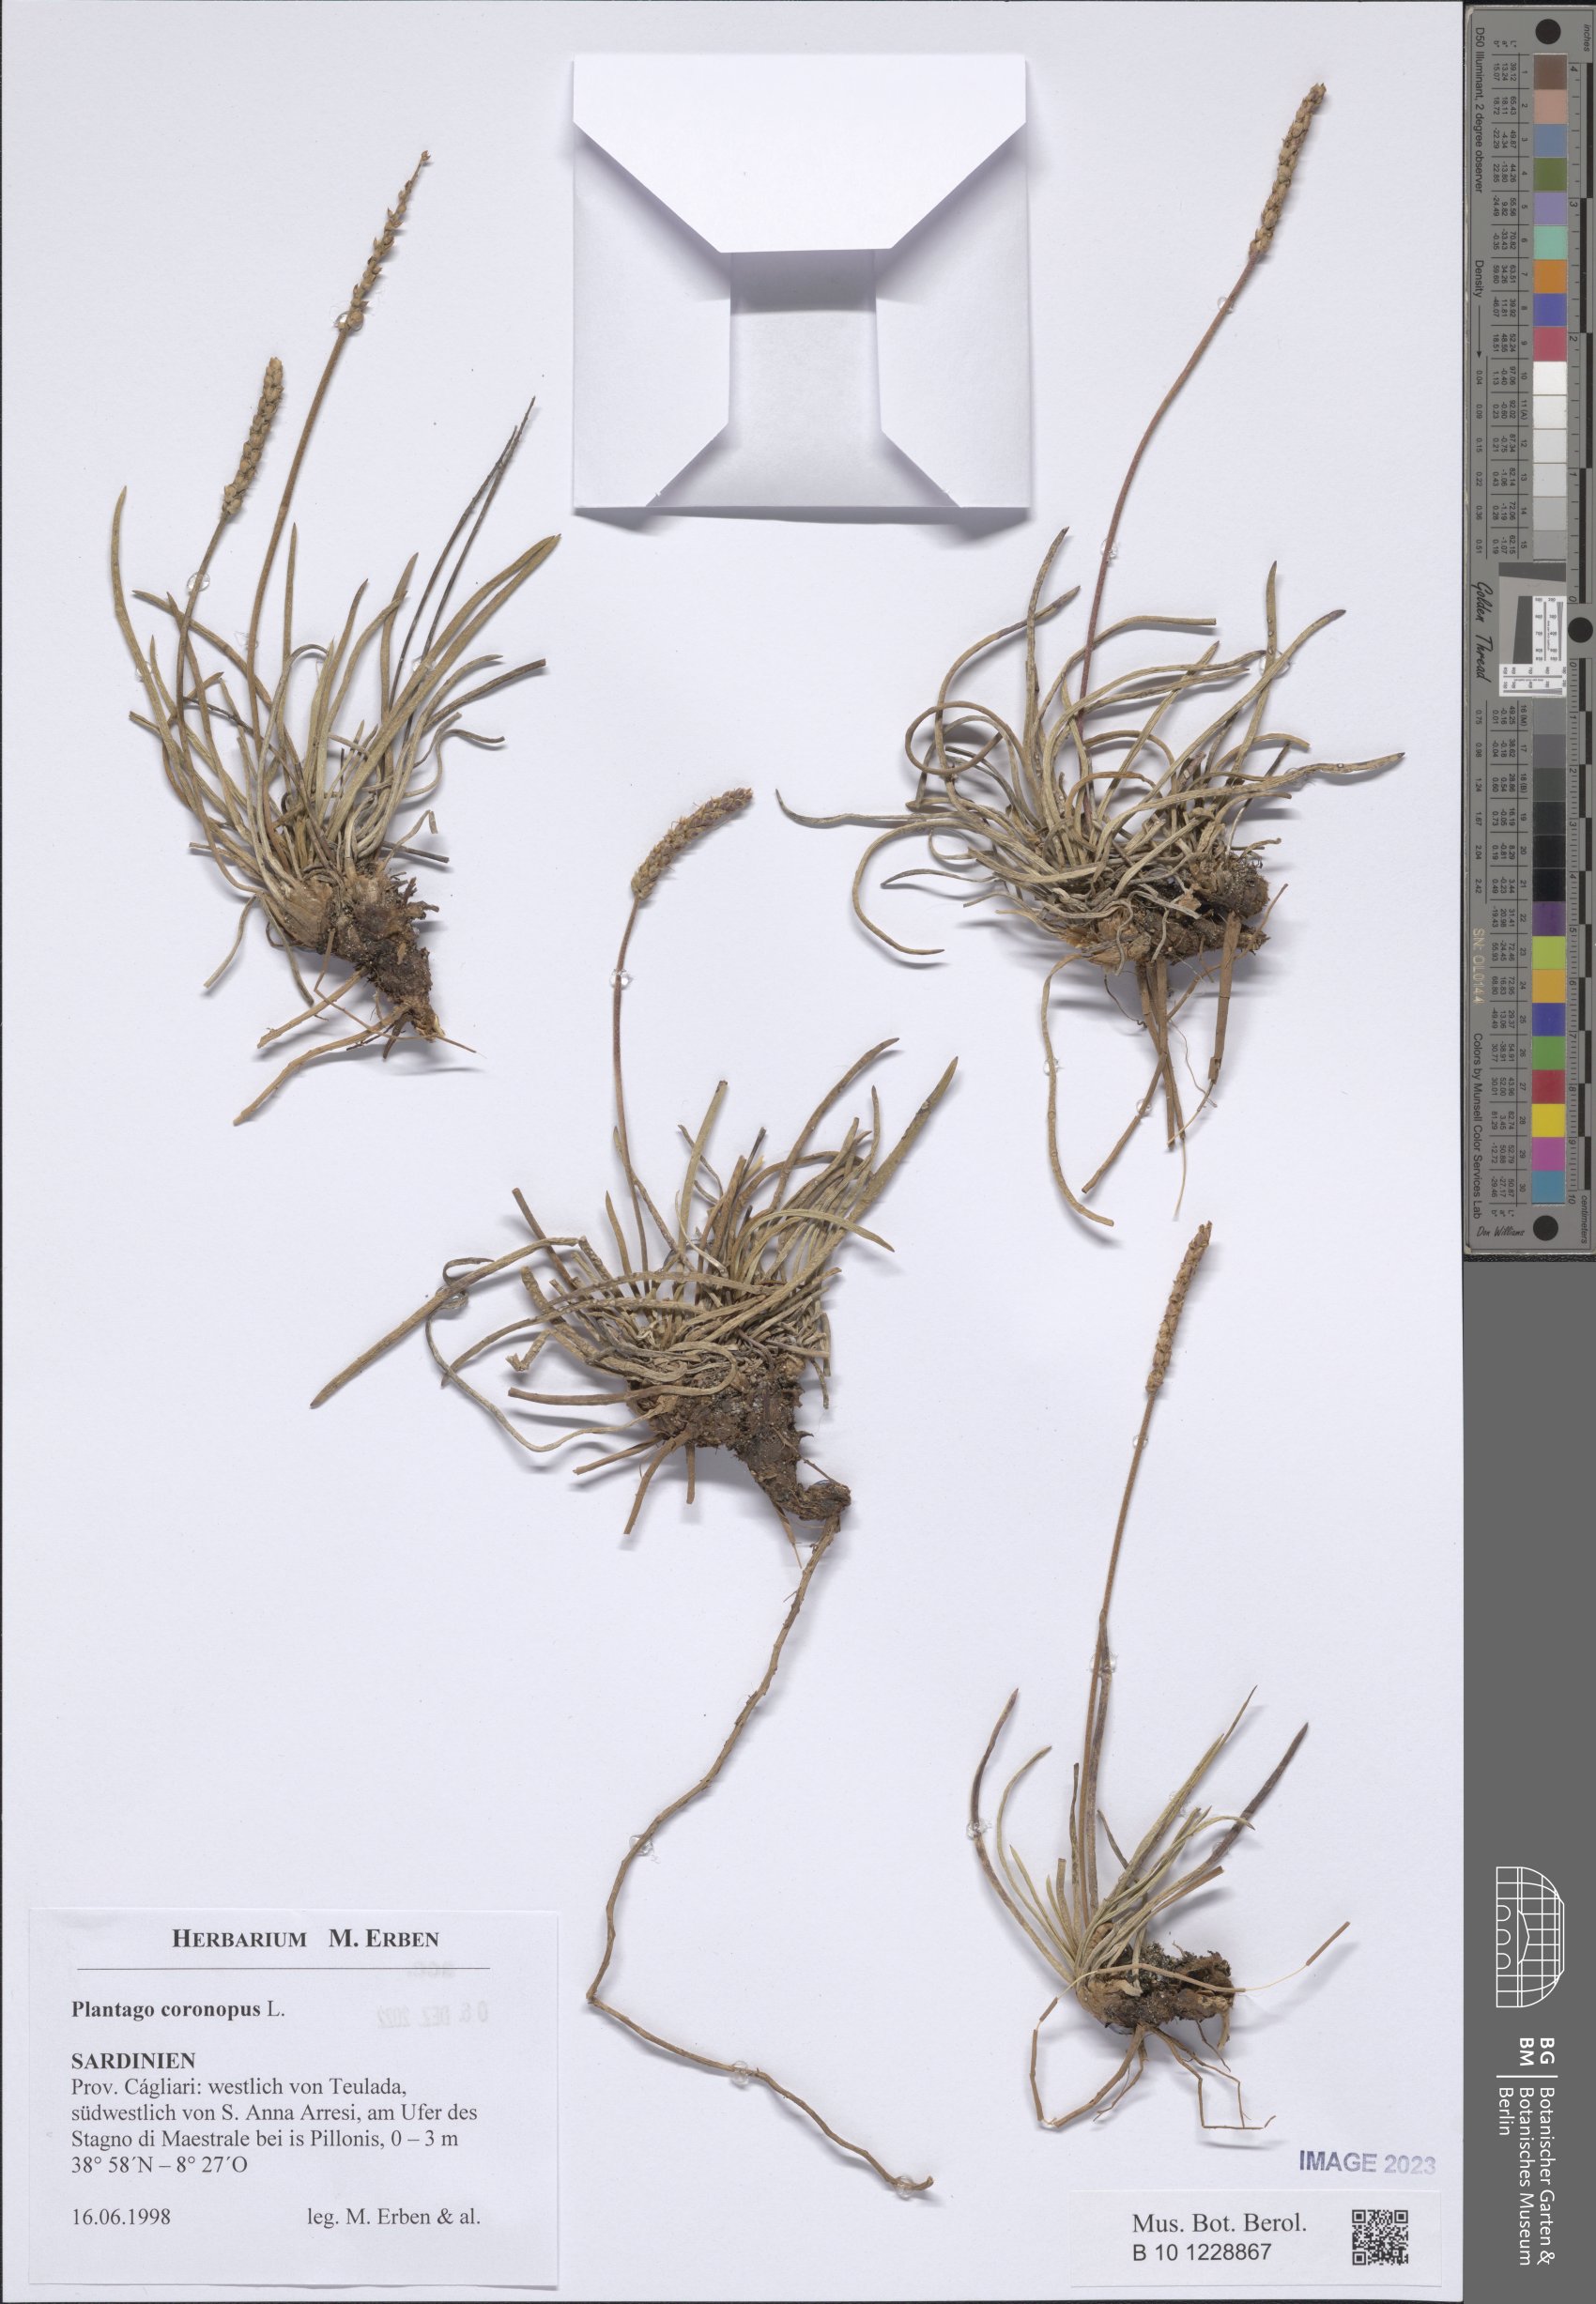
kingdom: Plantae
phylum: Tracheophyta
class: Magnoliopsida
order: Lamiales
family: Plantaginaceae
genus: Plantago
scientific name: Plantago coronopus
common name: Buck's-horn plantain
